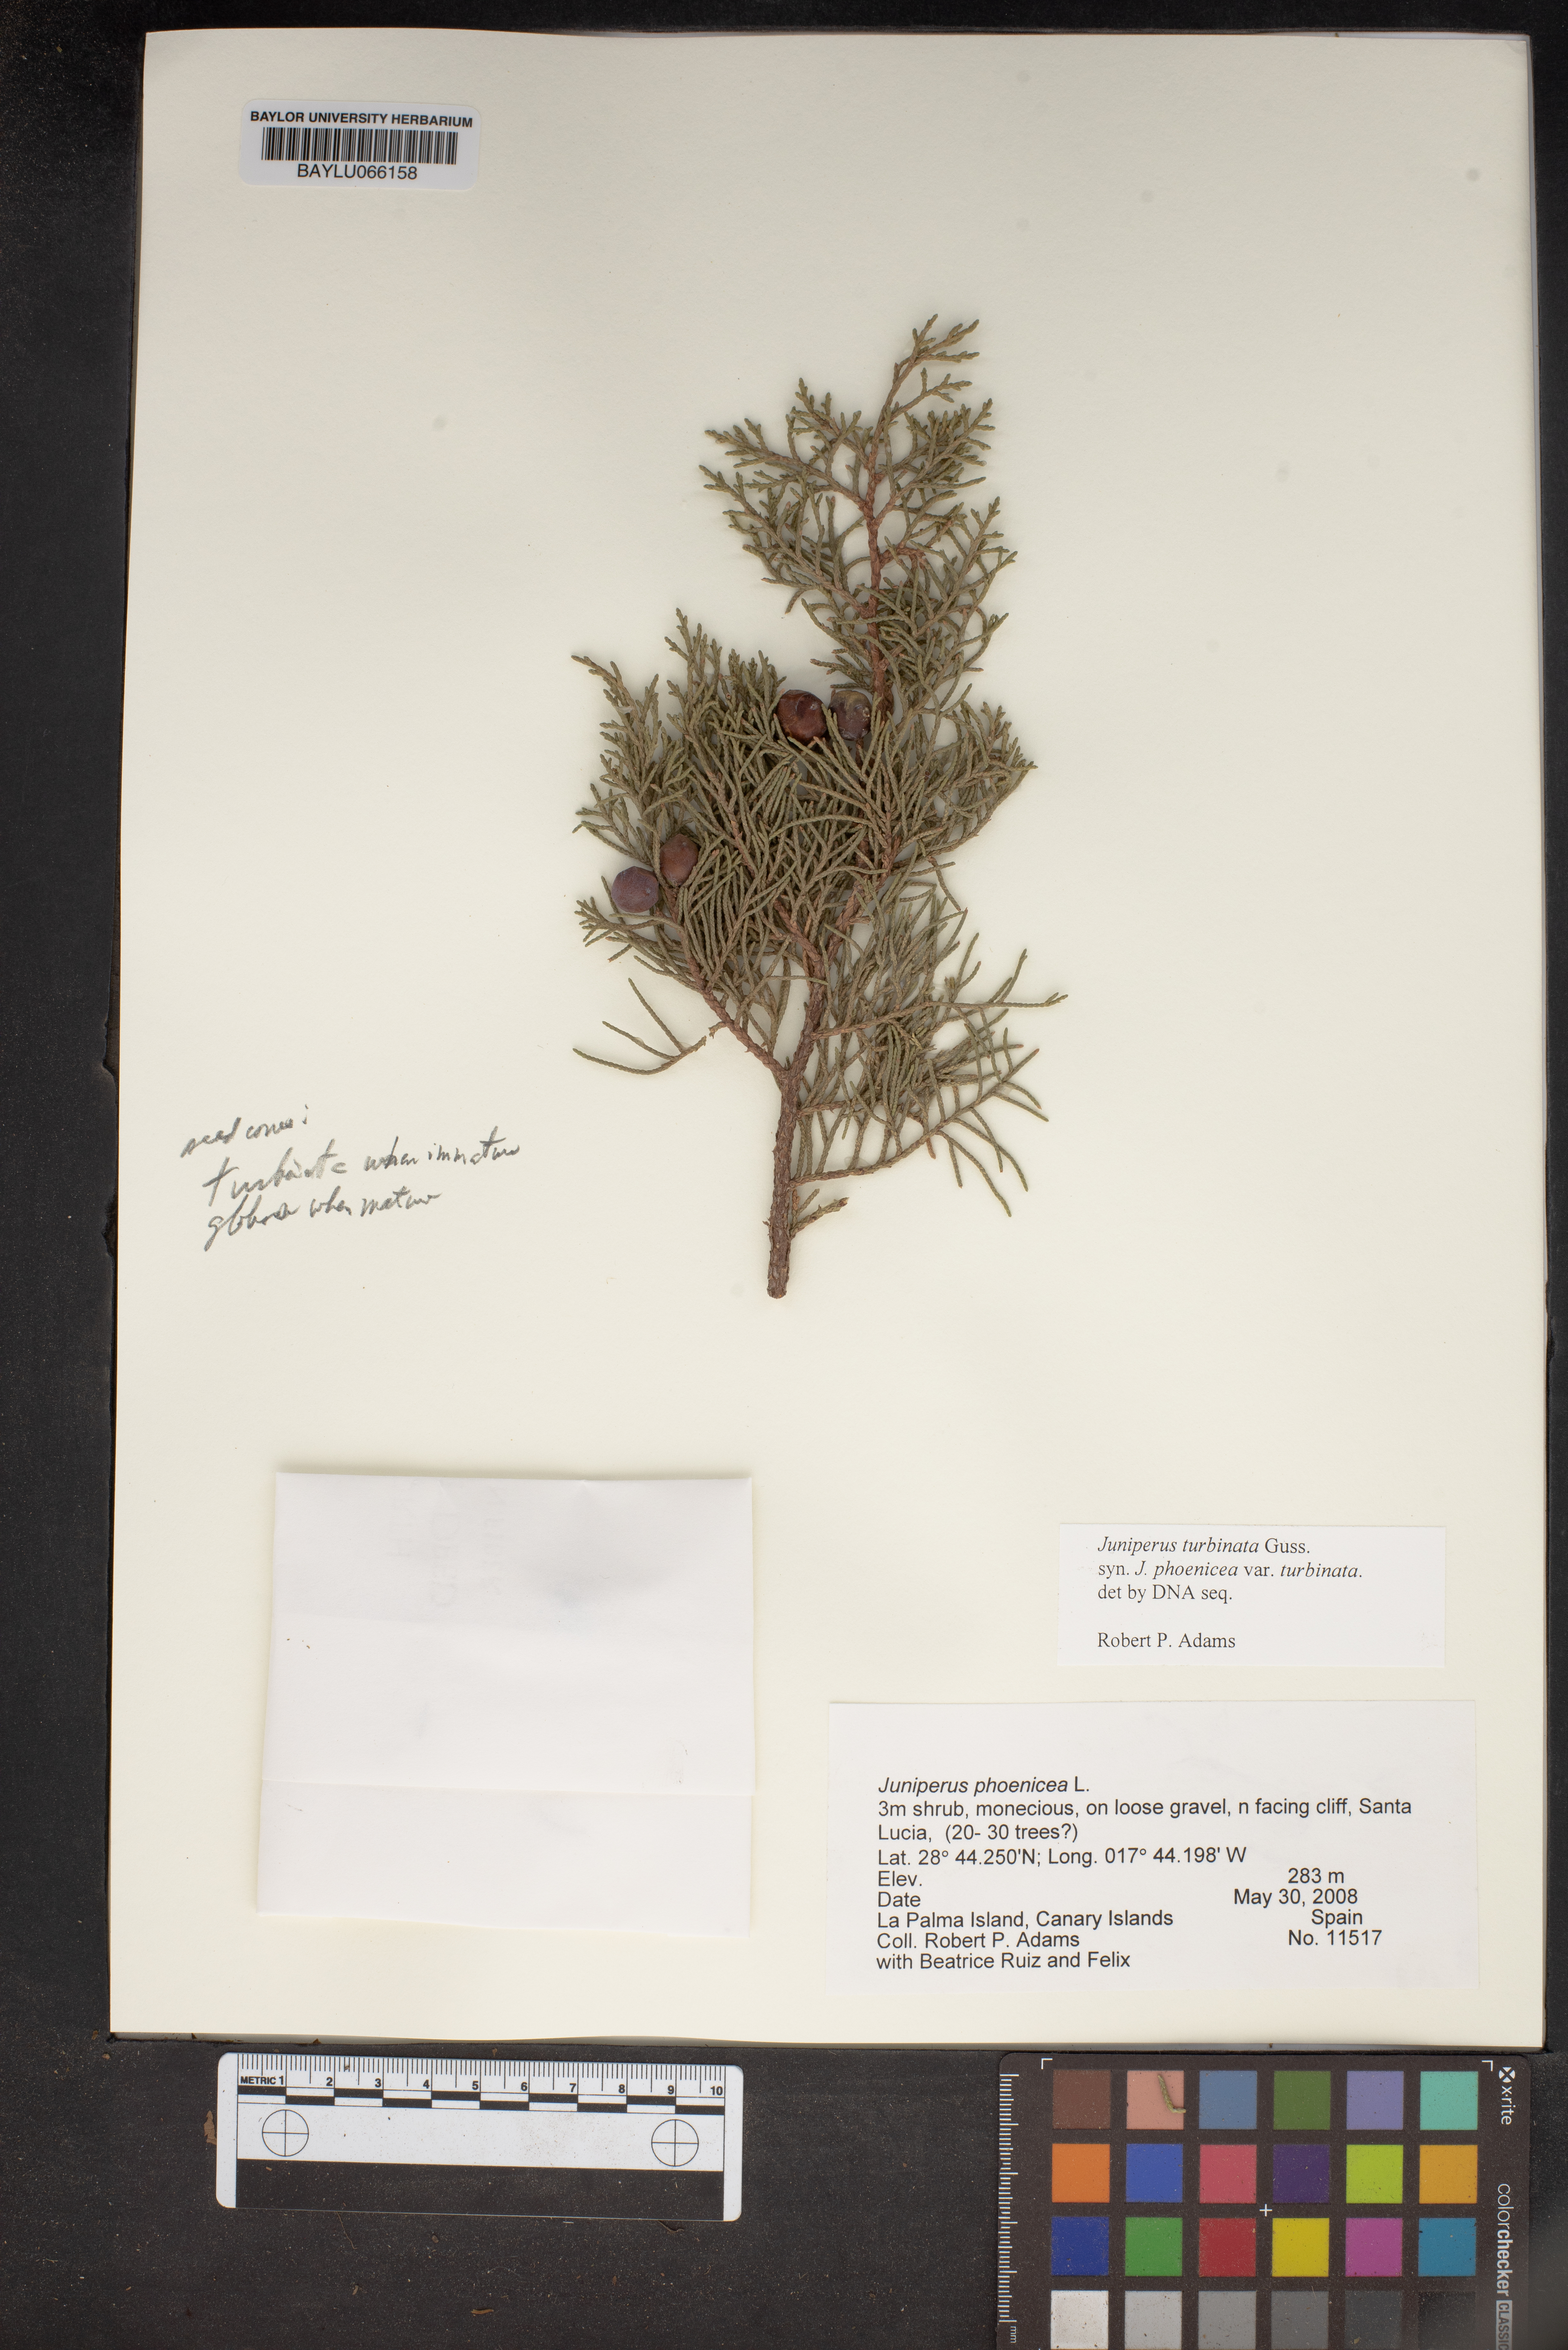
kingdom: Plantae
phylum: Tracheophyta
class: Pinopsida
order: Pinales
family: Cupressaceae
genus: Juniperus
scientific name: Juniperus phoenicea
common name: Phoenician juniper
